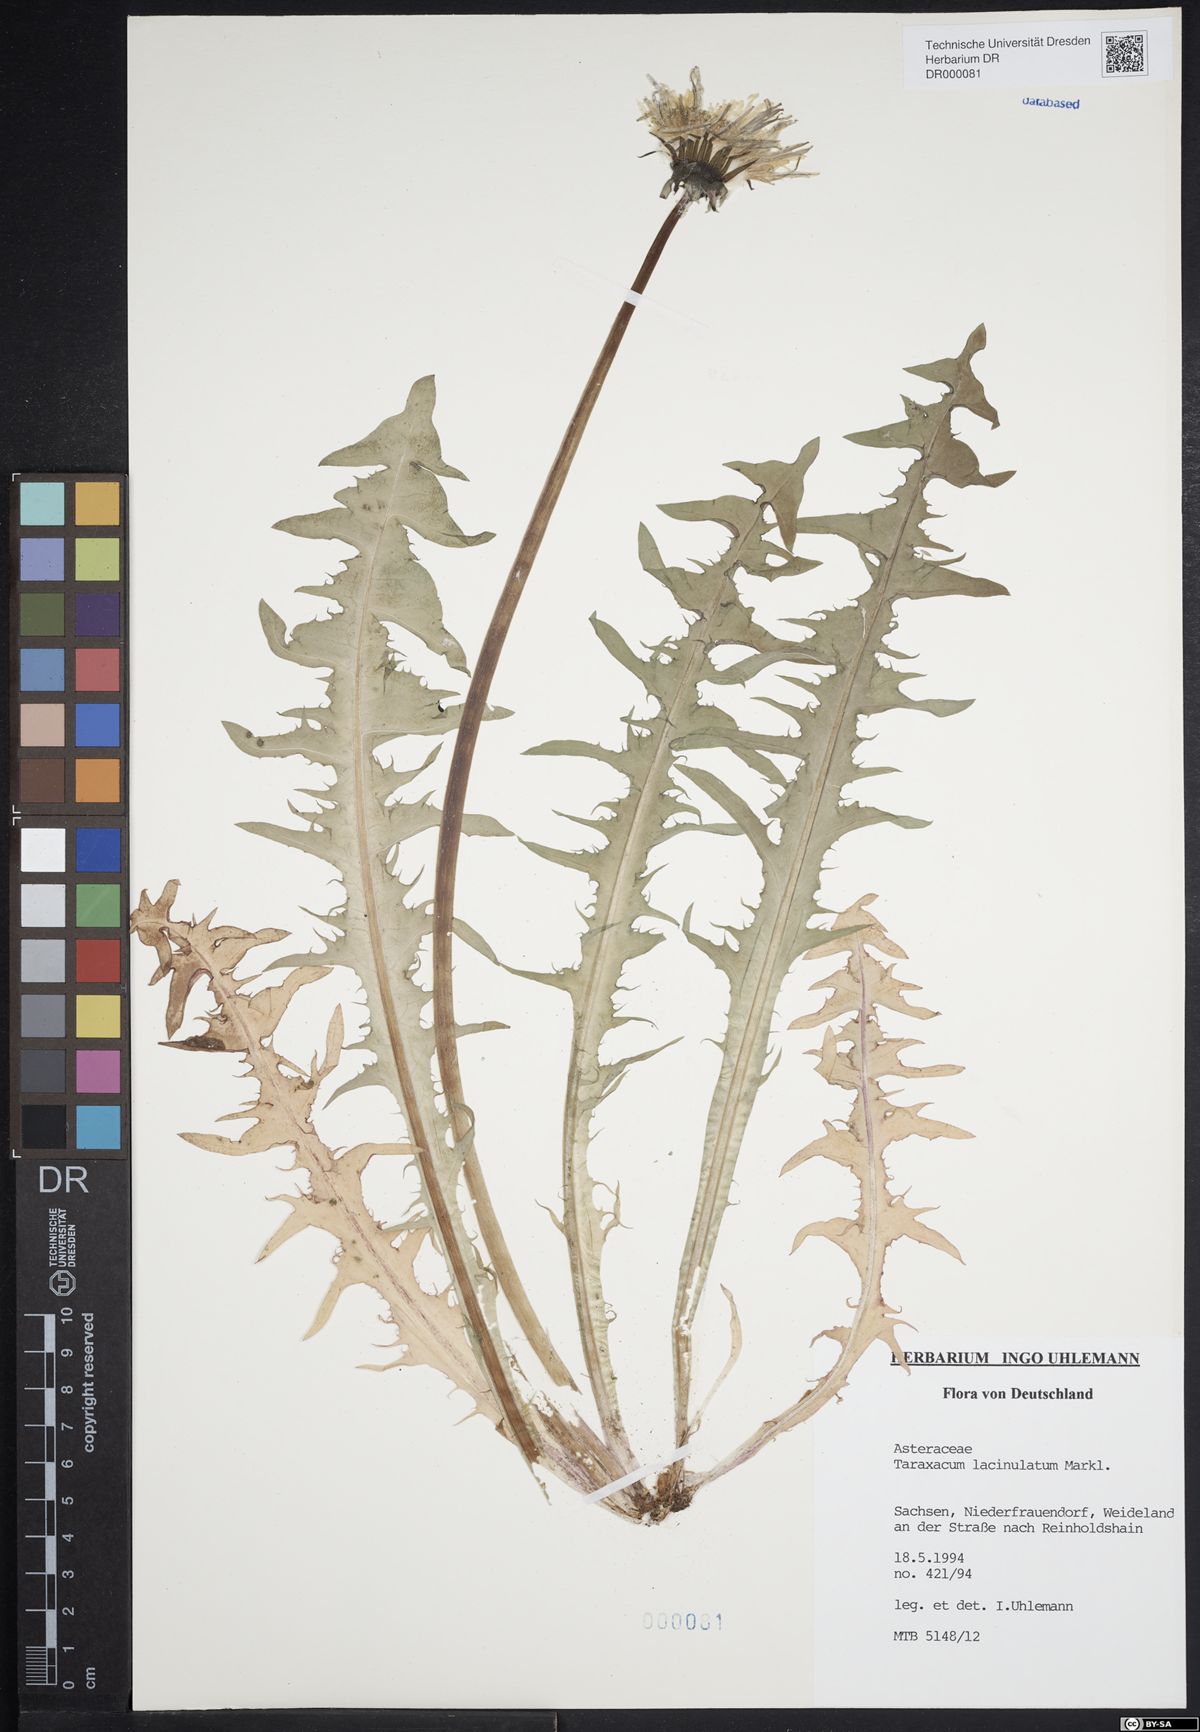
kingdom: Plantae
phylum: Tracheophyta
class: Magnoliopsida
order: Asterales
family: Asteraceae
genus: Taraxacum
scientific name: Taraxacum lacinulatum
